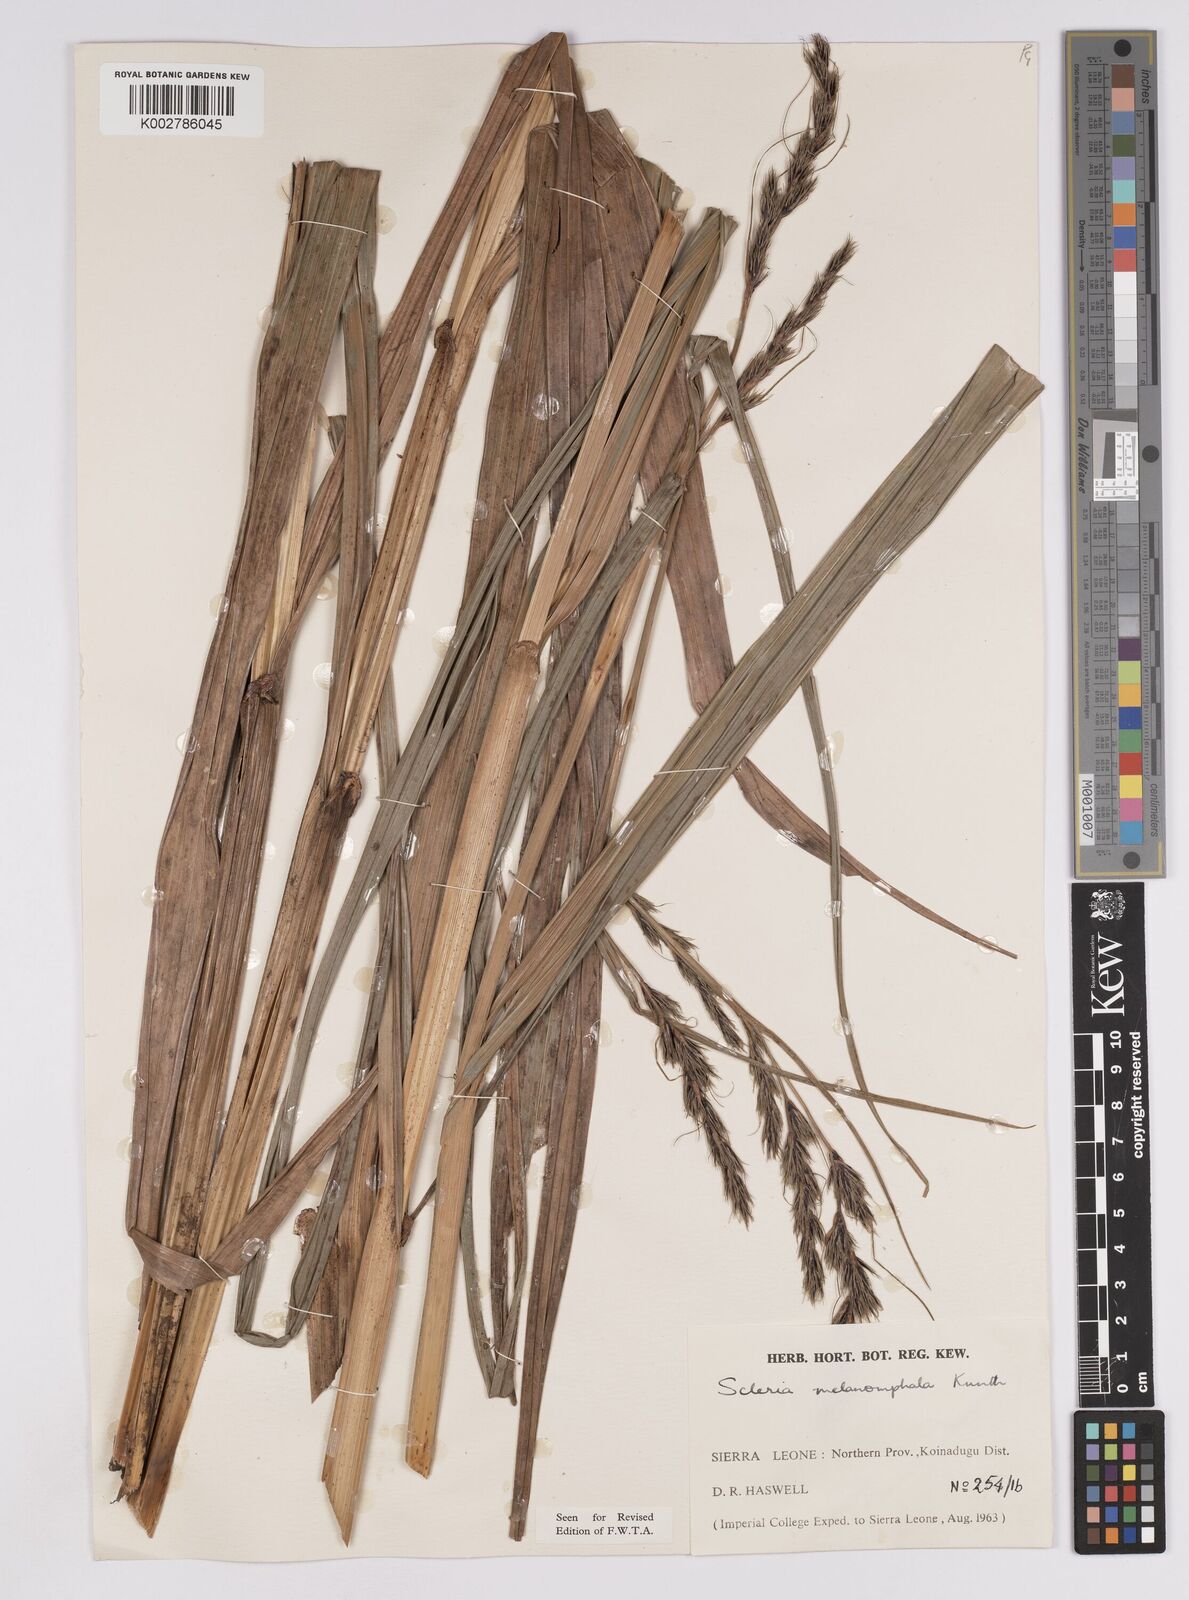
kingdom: Plantae
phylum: Tracheophyta
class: Liliopsida
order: Poales
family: Cyperaceae
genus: Scleria
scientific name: Scleria melanomphala
